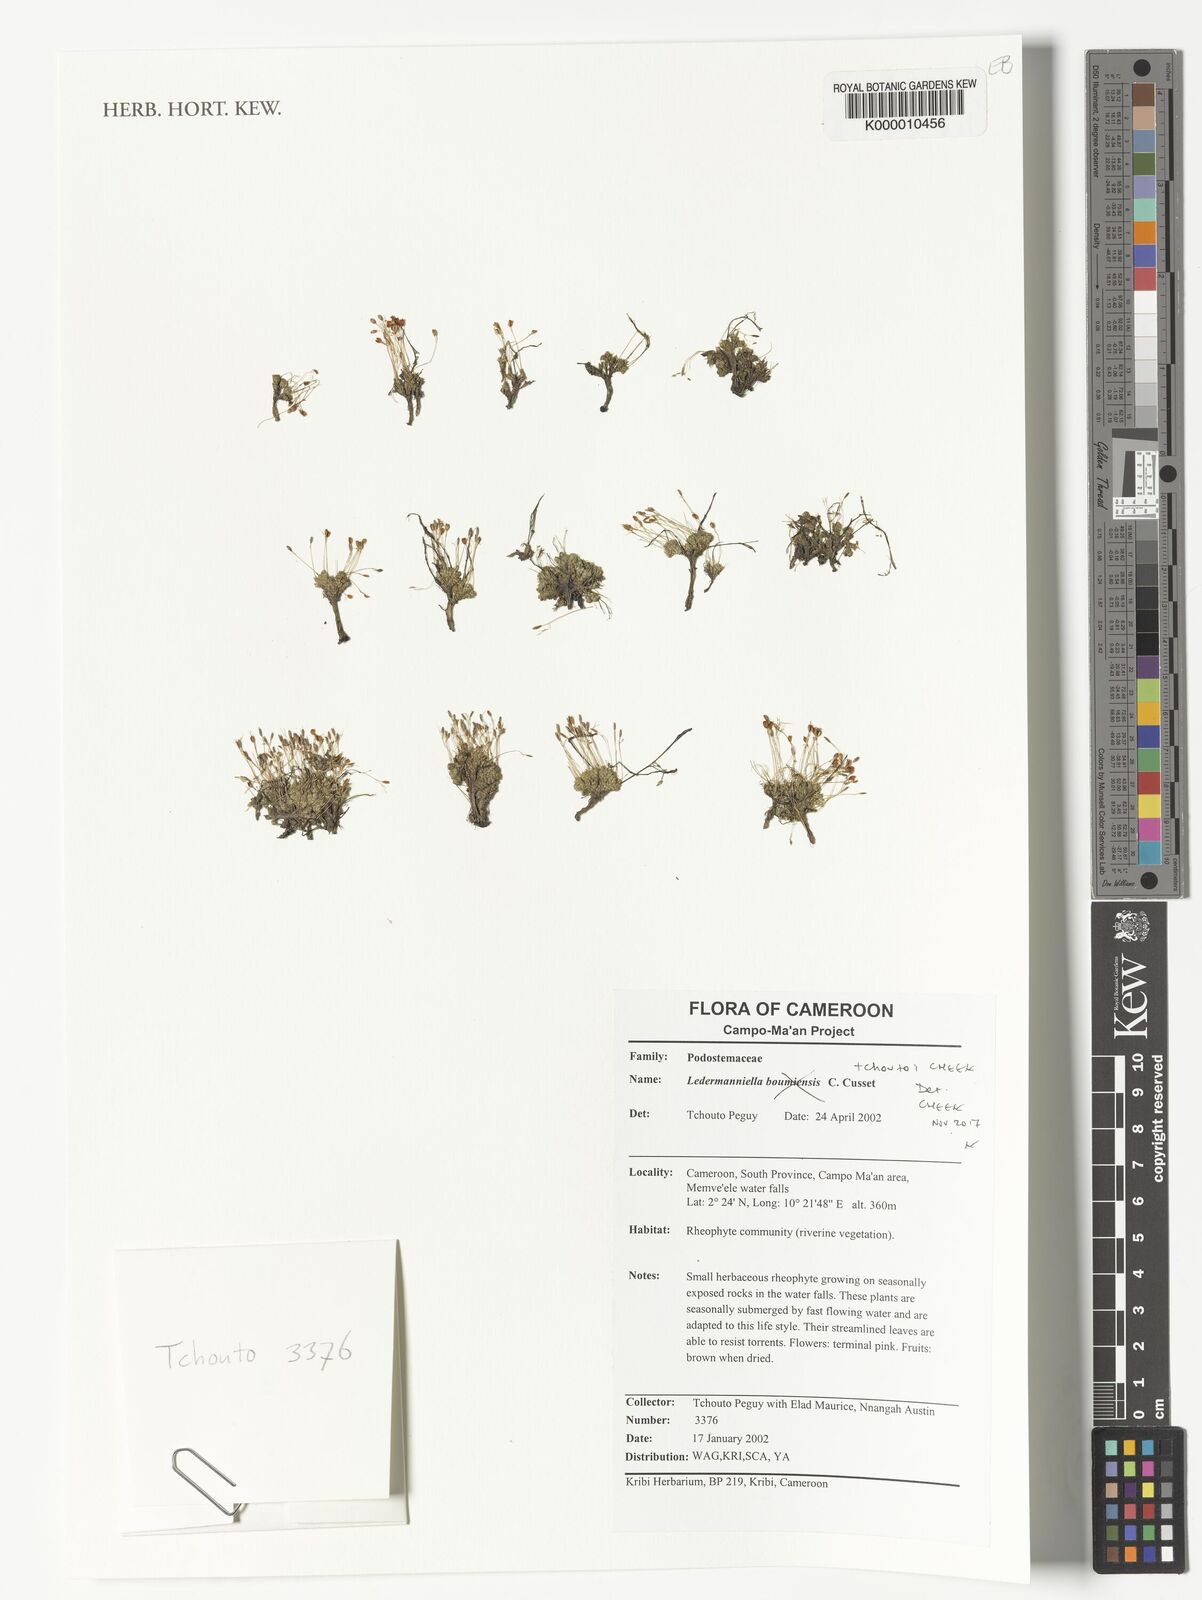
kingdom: Plantae
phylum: Tracheophyta
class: Magnoliopsida
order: Malpighiales
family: Podostemaceae
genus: Ledermanniella
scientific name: Ledermanniella
